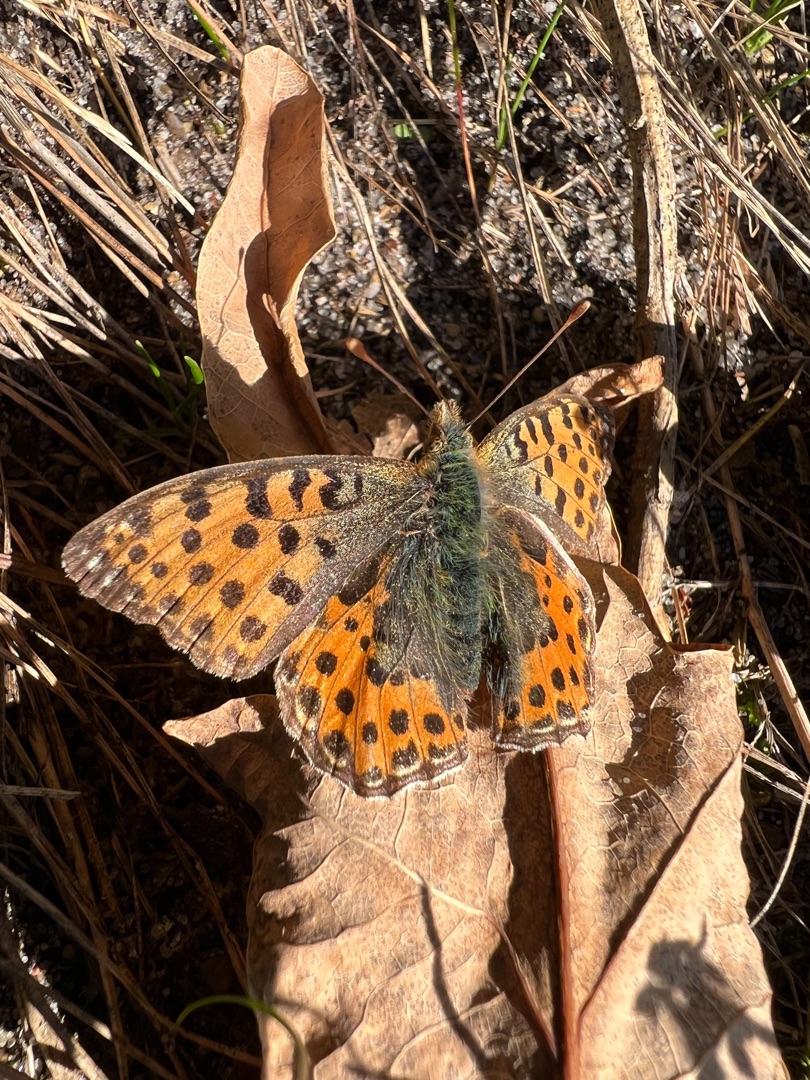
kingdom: Animalia
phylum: Arthropoda
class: Insecta
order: Lepidoptera
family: Nymphalidae
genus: Issoria
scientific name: Issoria lathonia
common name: Storplettet perlemorsommerfugl
